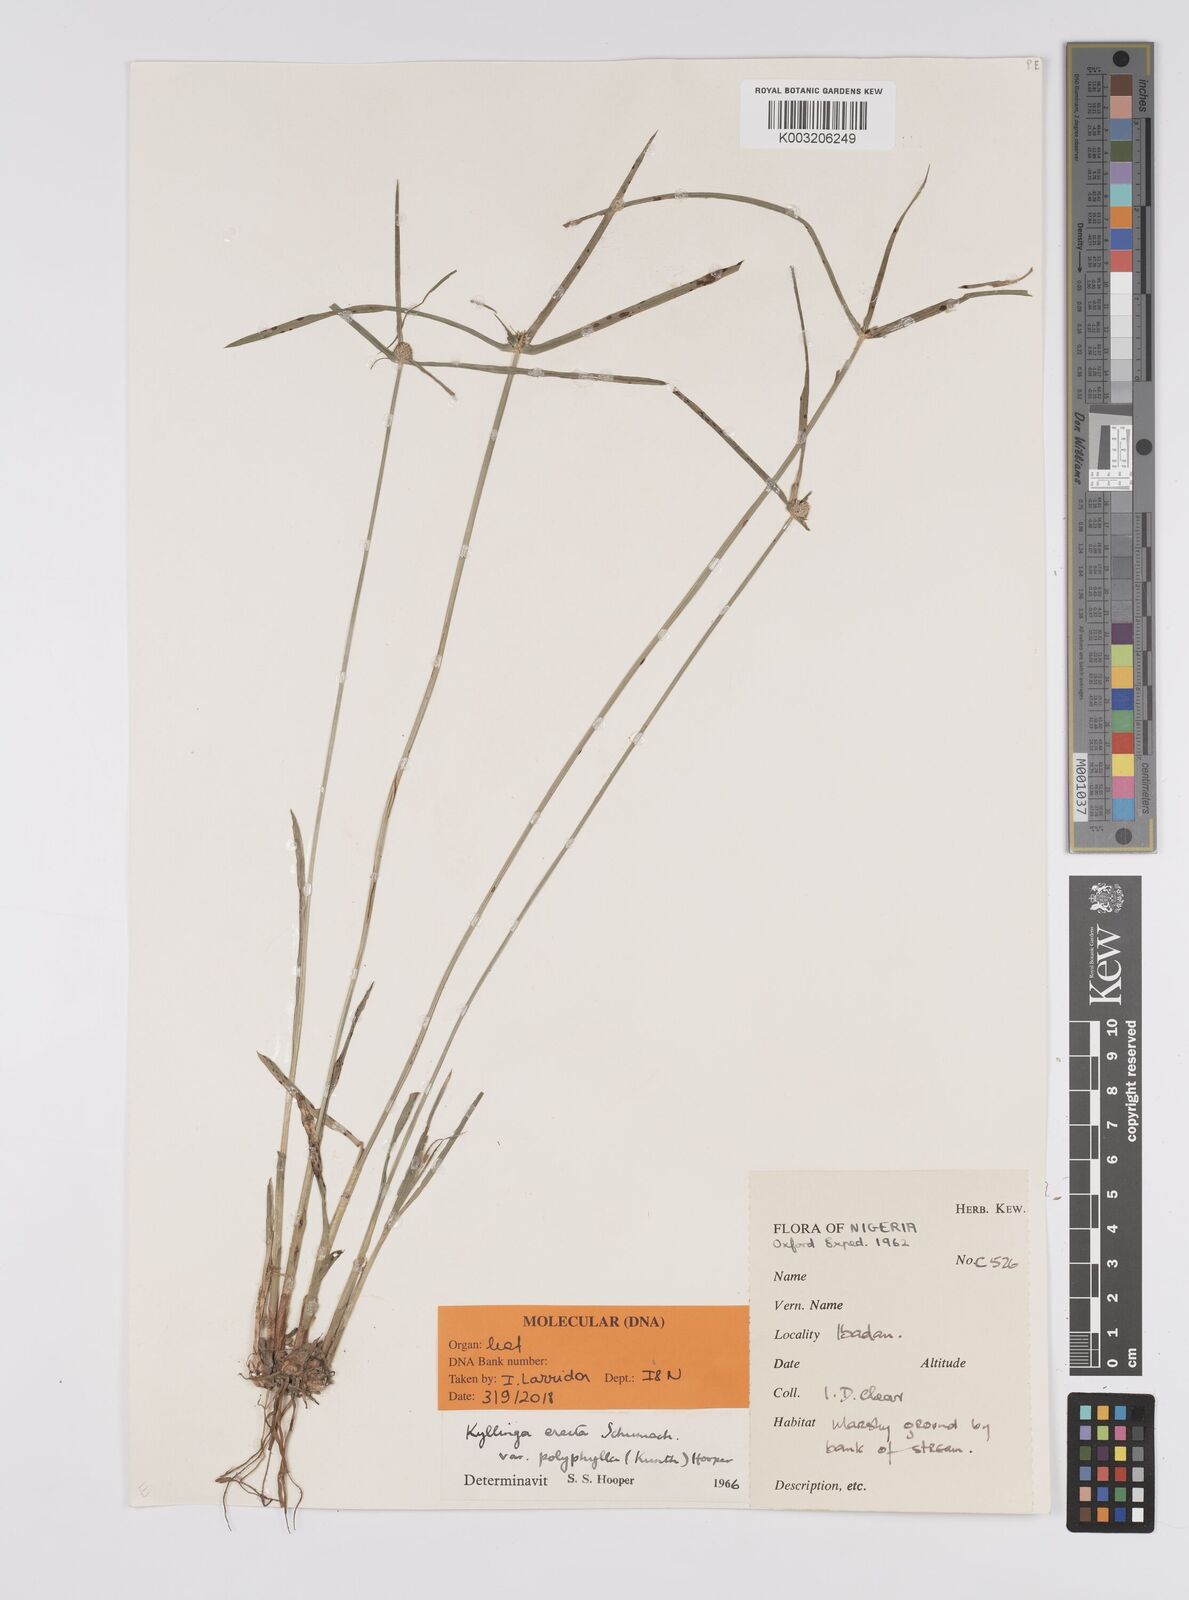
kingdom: Plantae
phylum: Tracheophyta
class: Liliopsida
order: Poales
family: Cyperaceae
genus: Cyperus
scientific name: Cyperus
